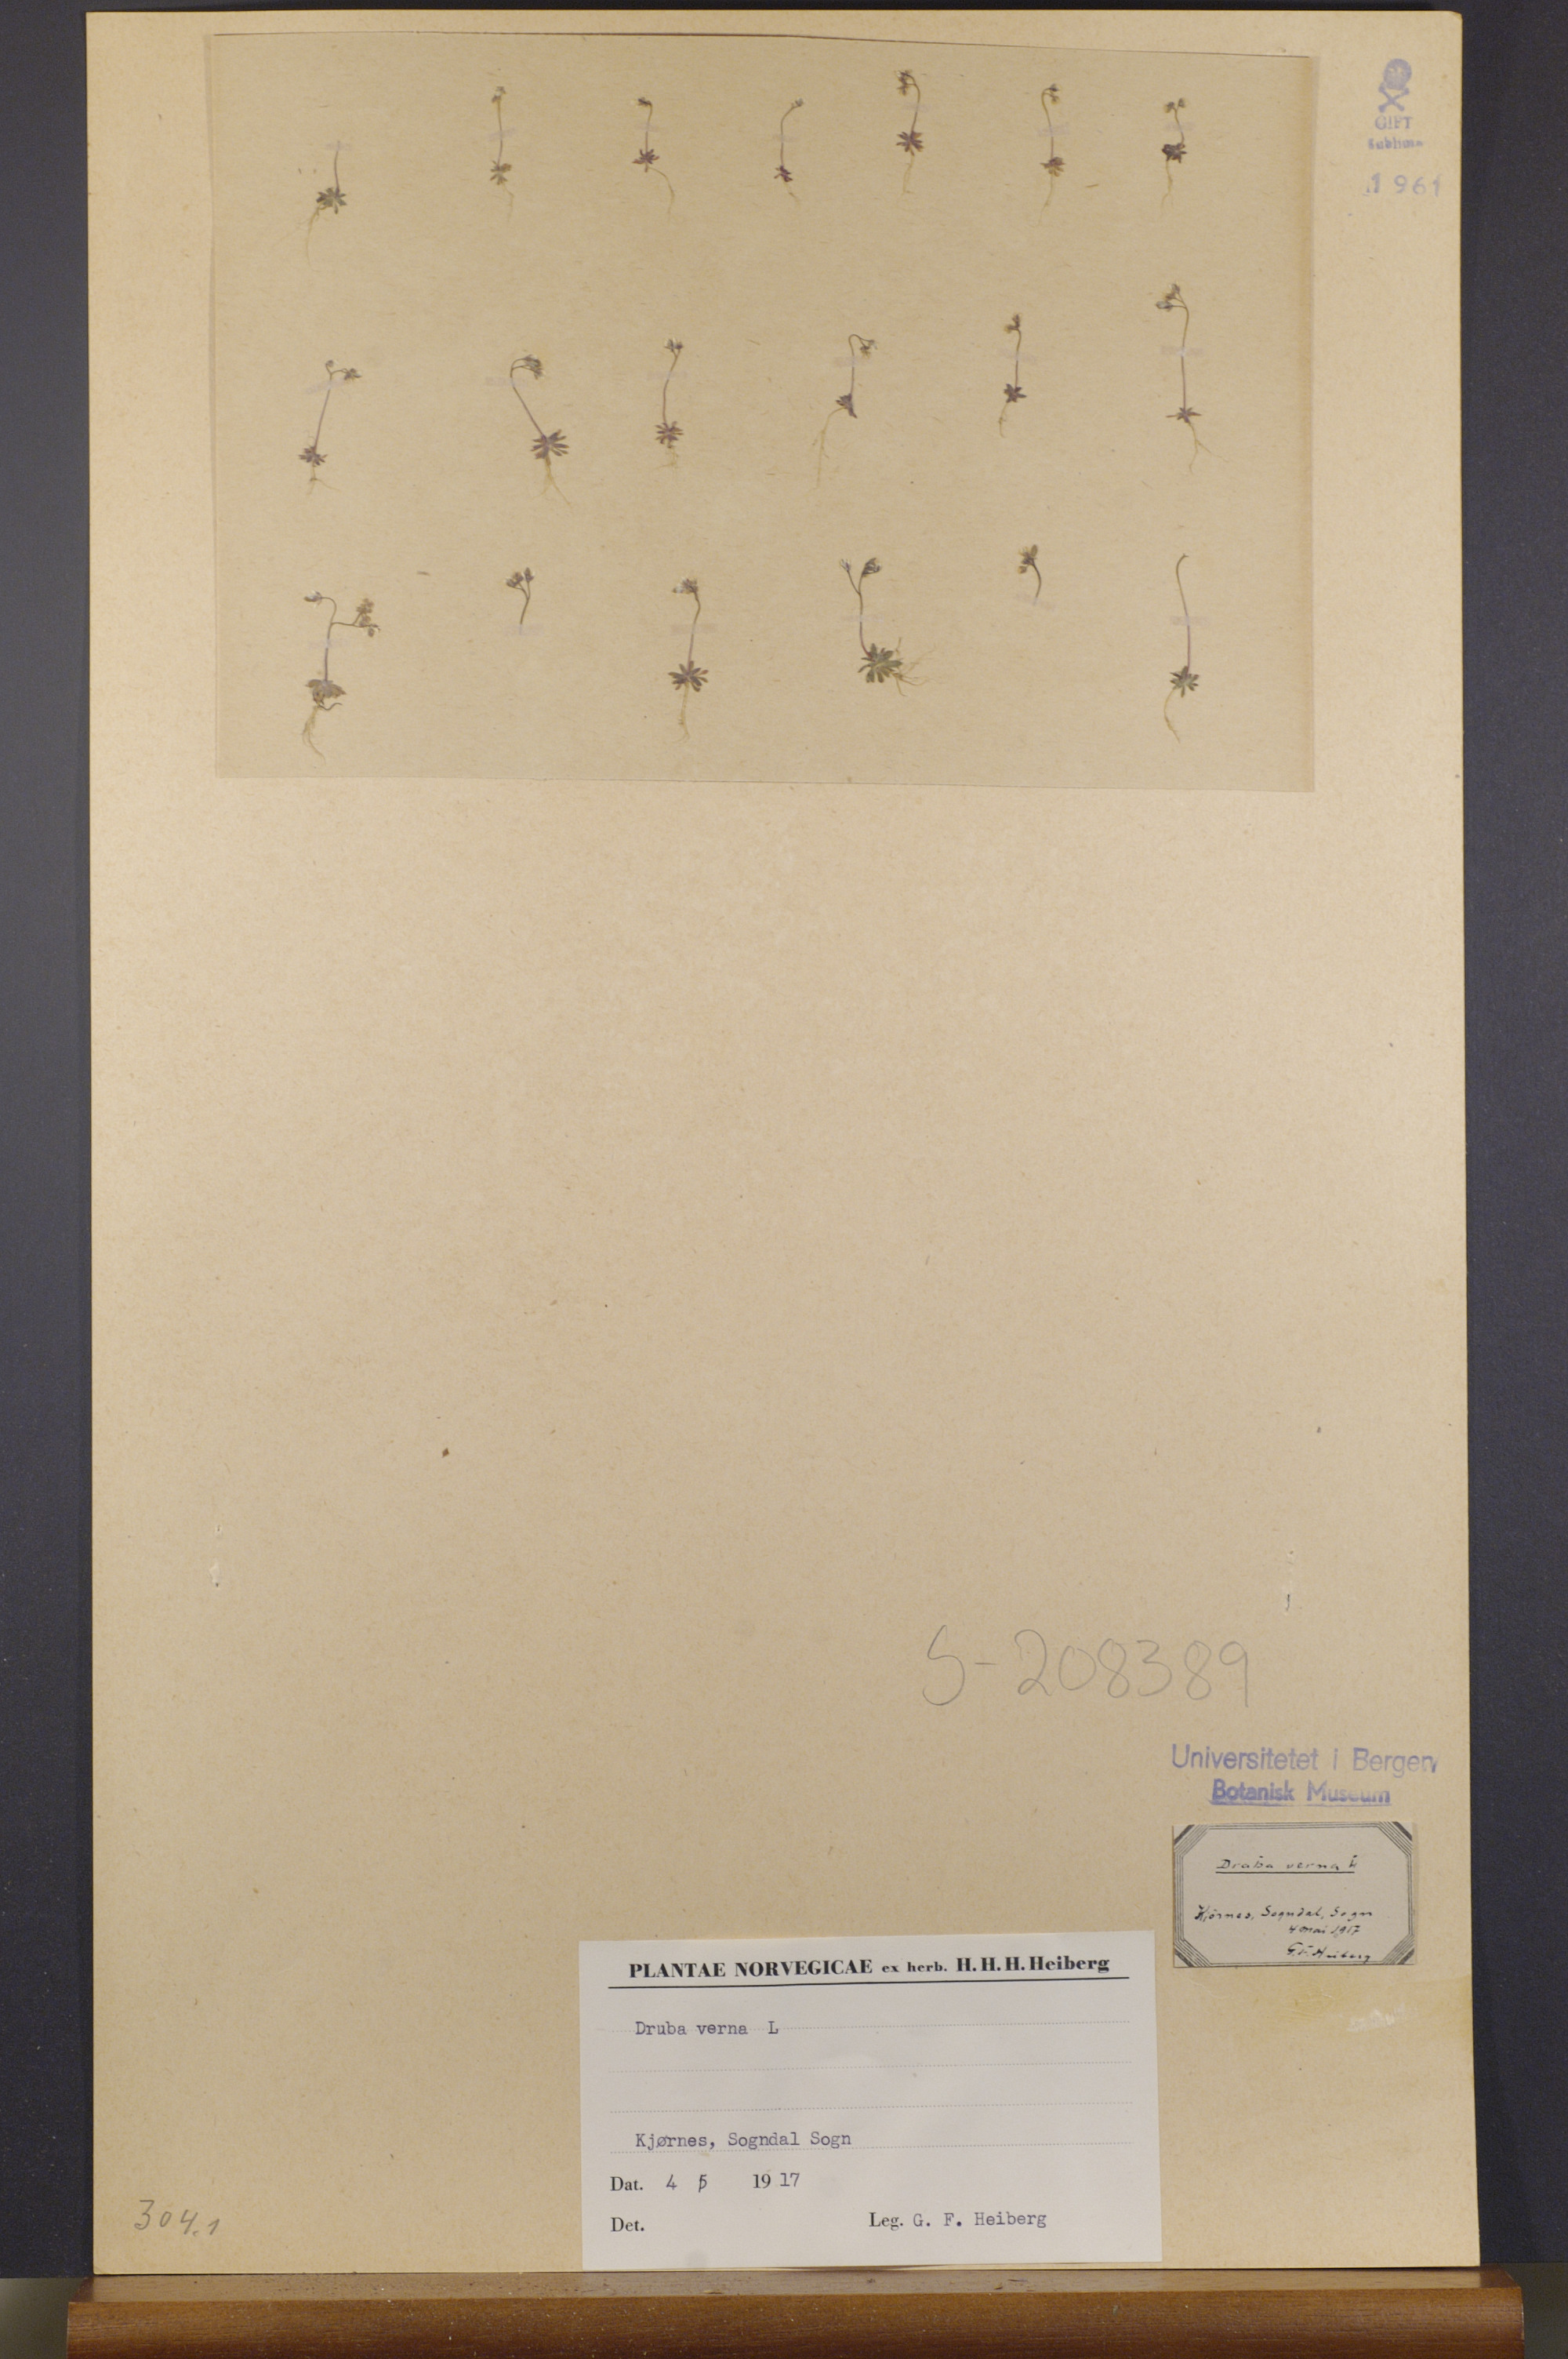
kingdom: Plantae
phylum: Tracheophyta
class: Magnoliopsida
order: Brassicales
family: Brassicaceae
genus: Draba
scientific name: Draba verna
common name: Spring draba
